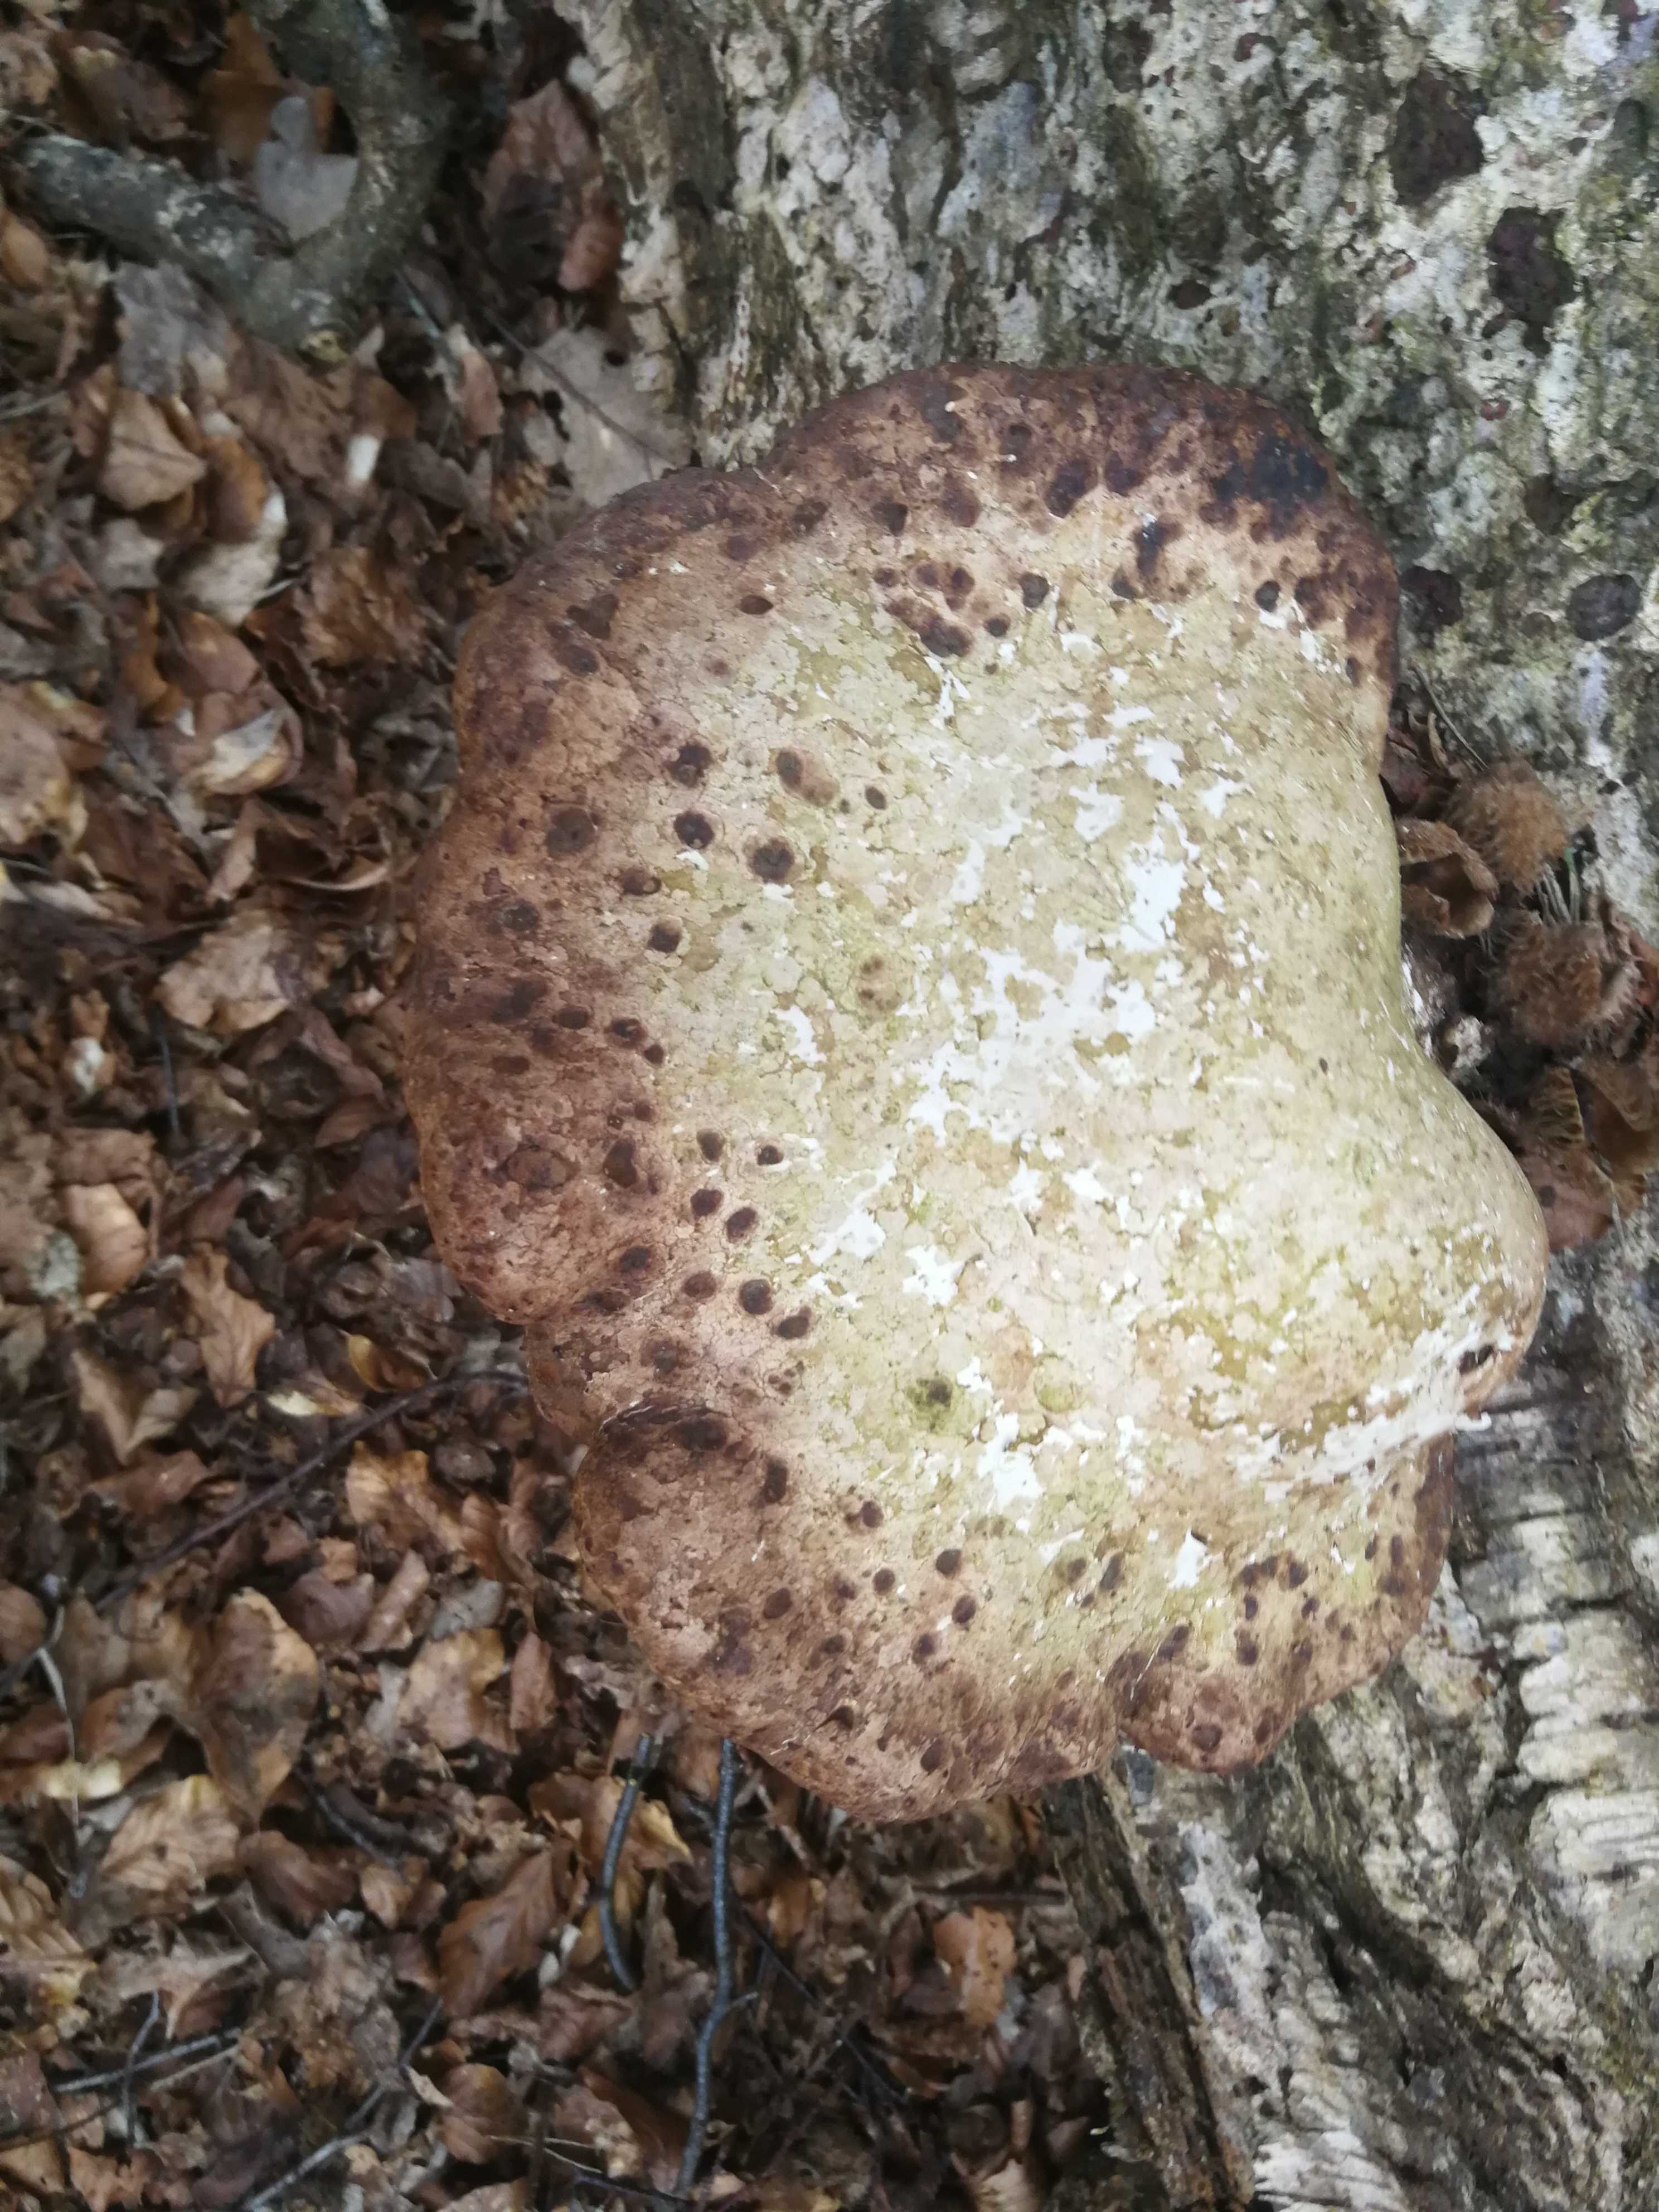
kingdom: Fungi
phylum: Basidiomycota
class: Agaricomycetes
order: Polyporales
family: Fomitopsidaceae
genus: Fomitopsis
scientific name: Fomitopsis betulina
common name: birkeporesvamp
